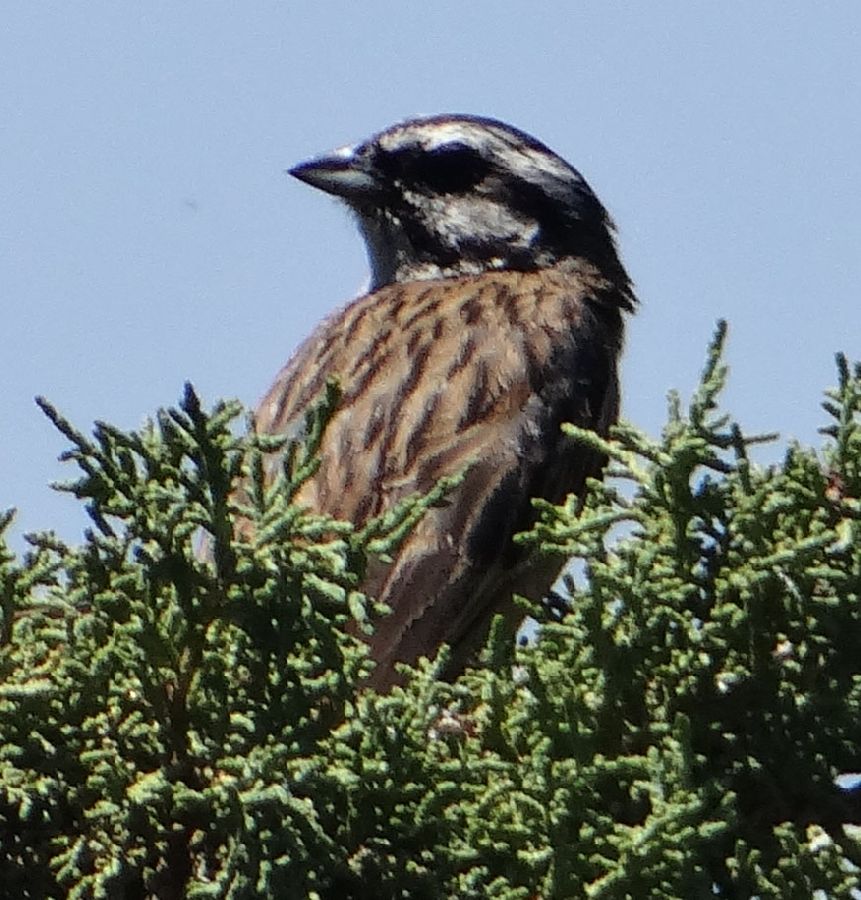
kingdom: Animalia
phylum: Chordata
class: Aves
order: Passeriformes
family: Emberizidae
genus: Emberiza
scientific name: Emberiza cia
